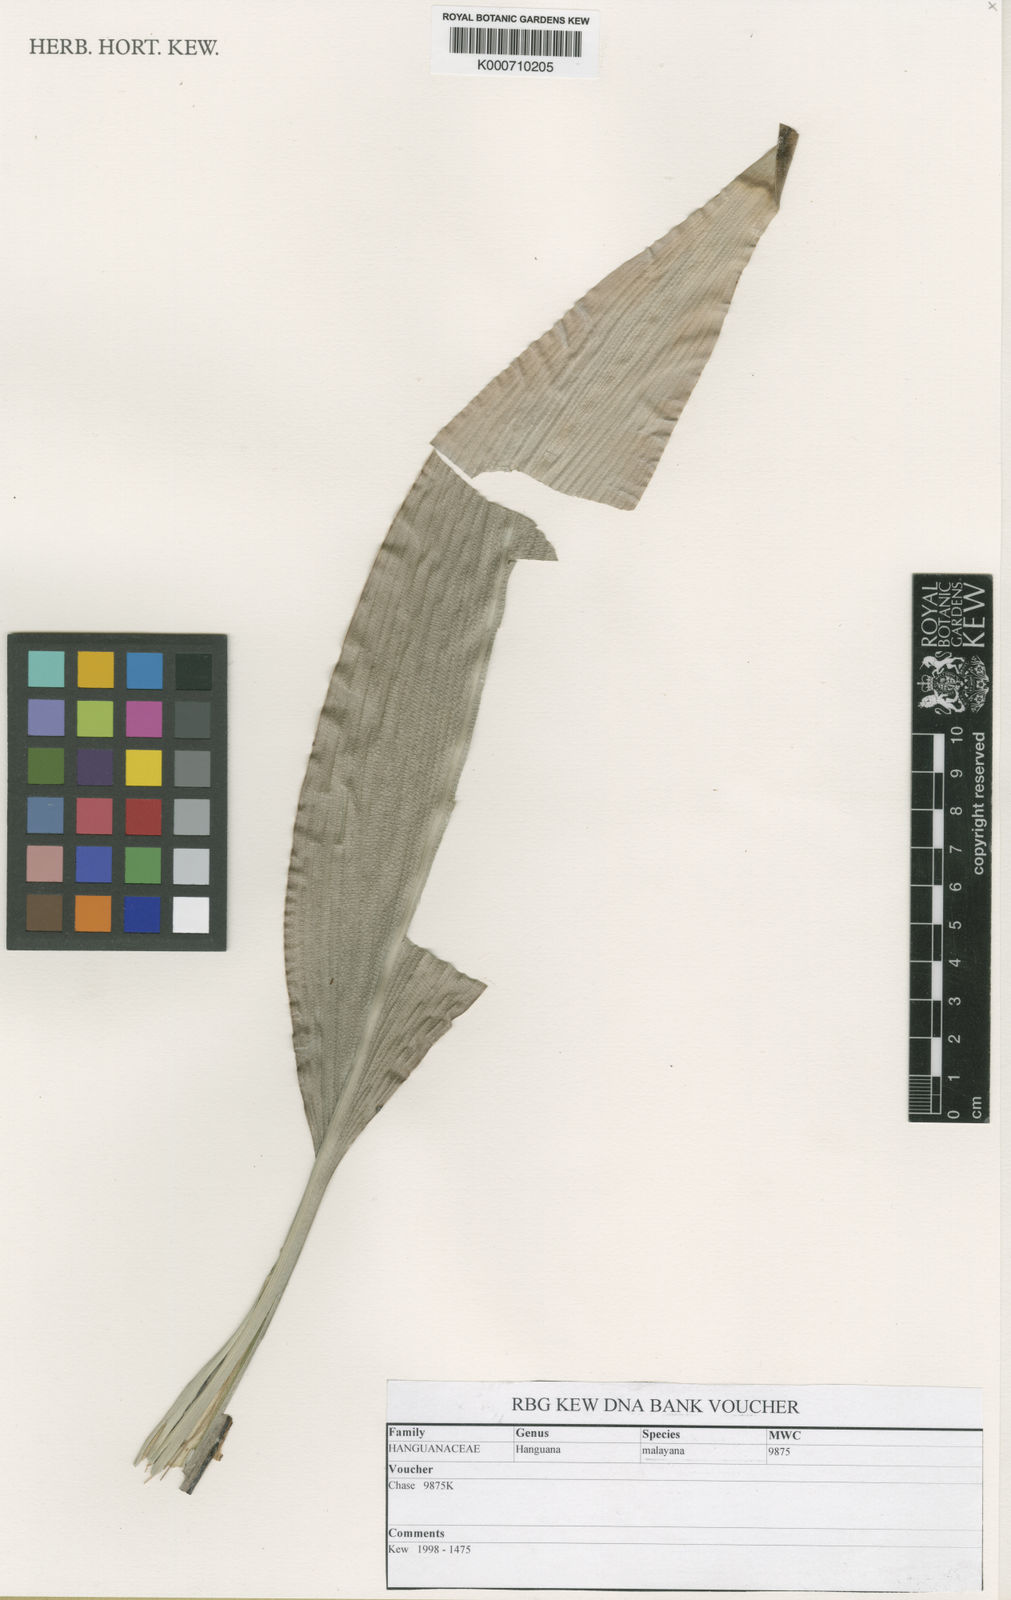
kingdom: Plantae
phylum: Tracheophyta
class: Liliopsida
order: Commelinales
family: Hanguanaceae
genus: Hanguana
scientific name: Hanguana malayana
